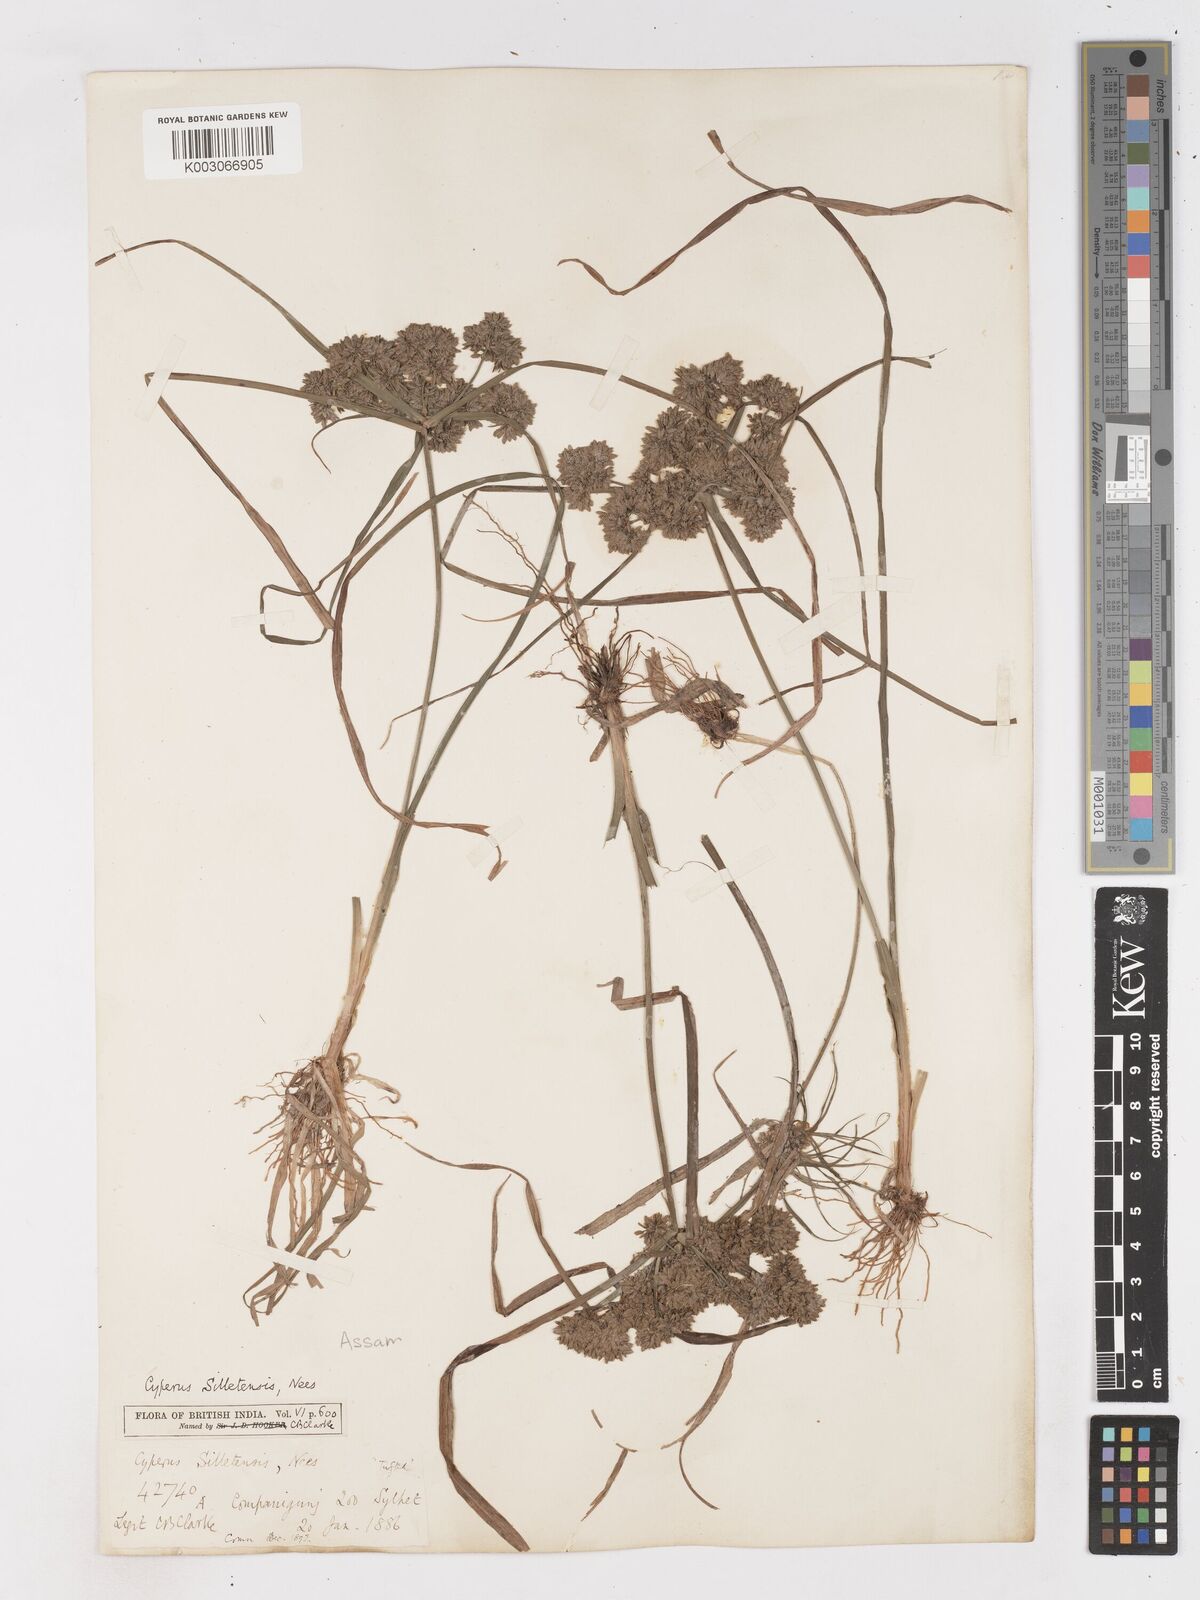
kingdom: Plantae
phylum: Tracheophyta
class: Liliopsida
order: Poales
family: Cyperaceae
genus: Cyperus
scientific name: Cyperus silletensis
